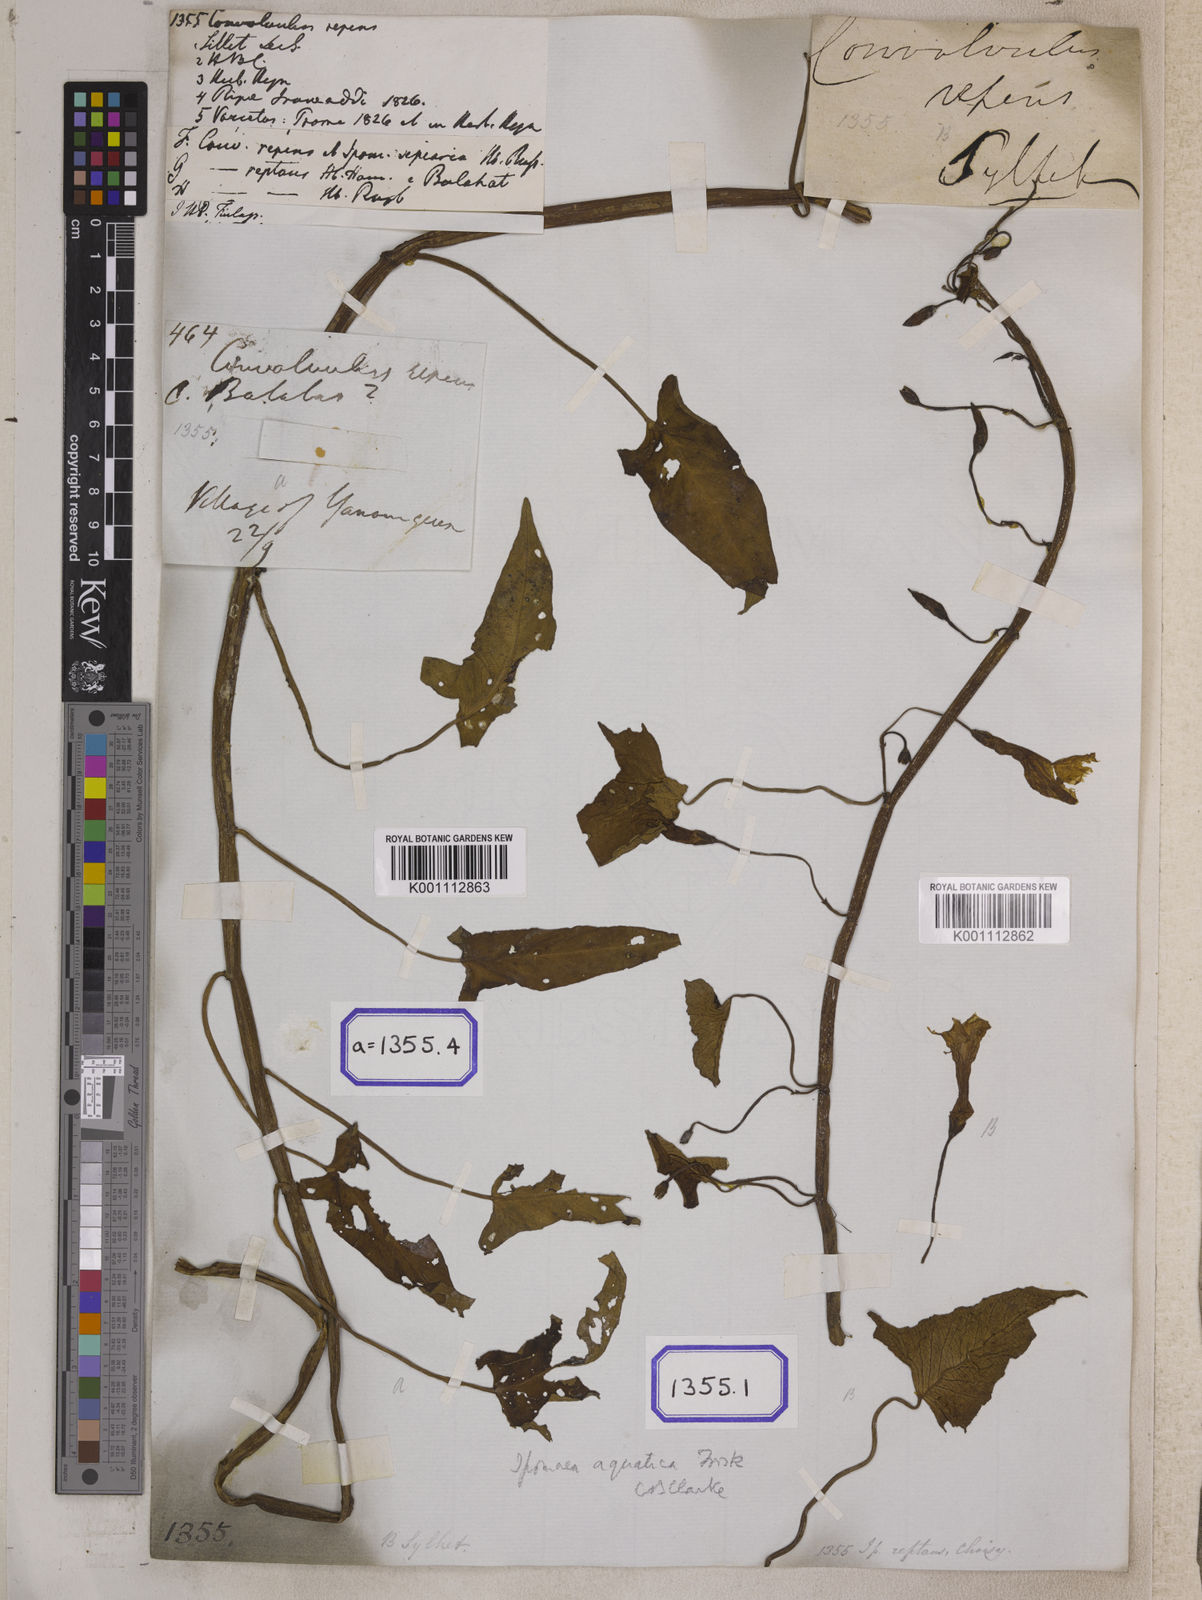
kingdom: Plantae
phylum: Tracheophyta
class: Magnoliopsida
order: Solanales
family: Convolvulaceae
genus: Calystegia
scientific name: Calystegia sepium
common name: Hedge bindweed
